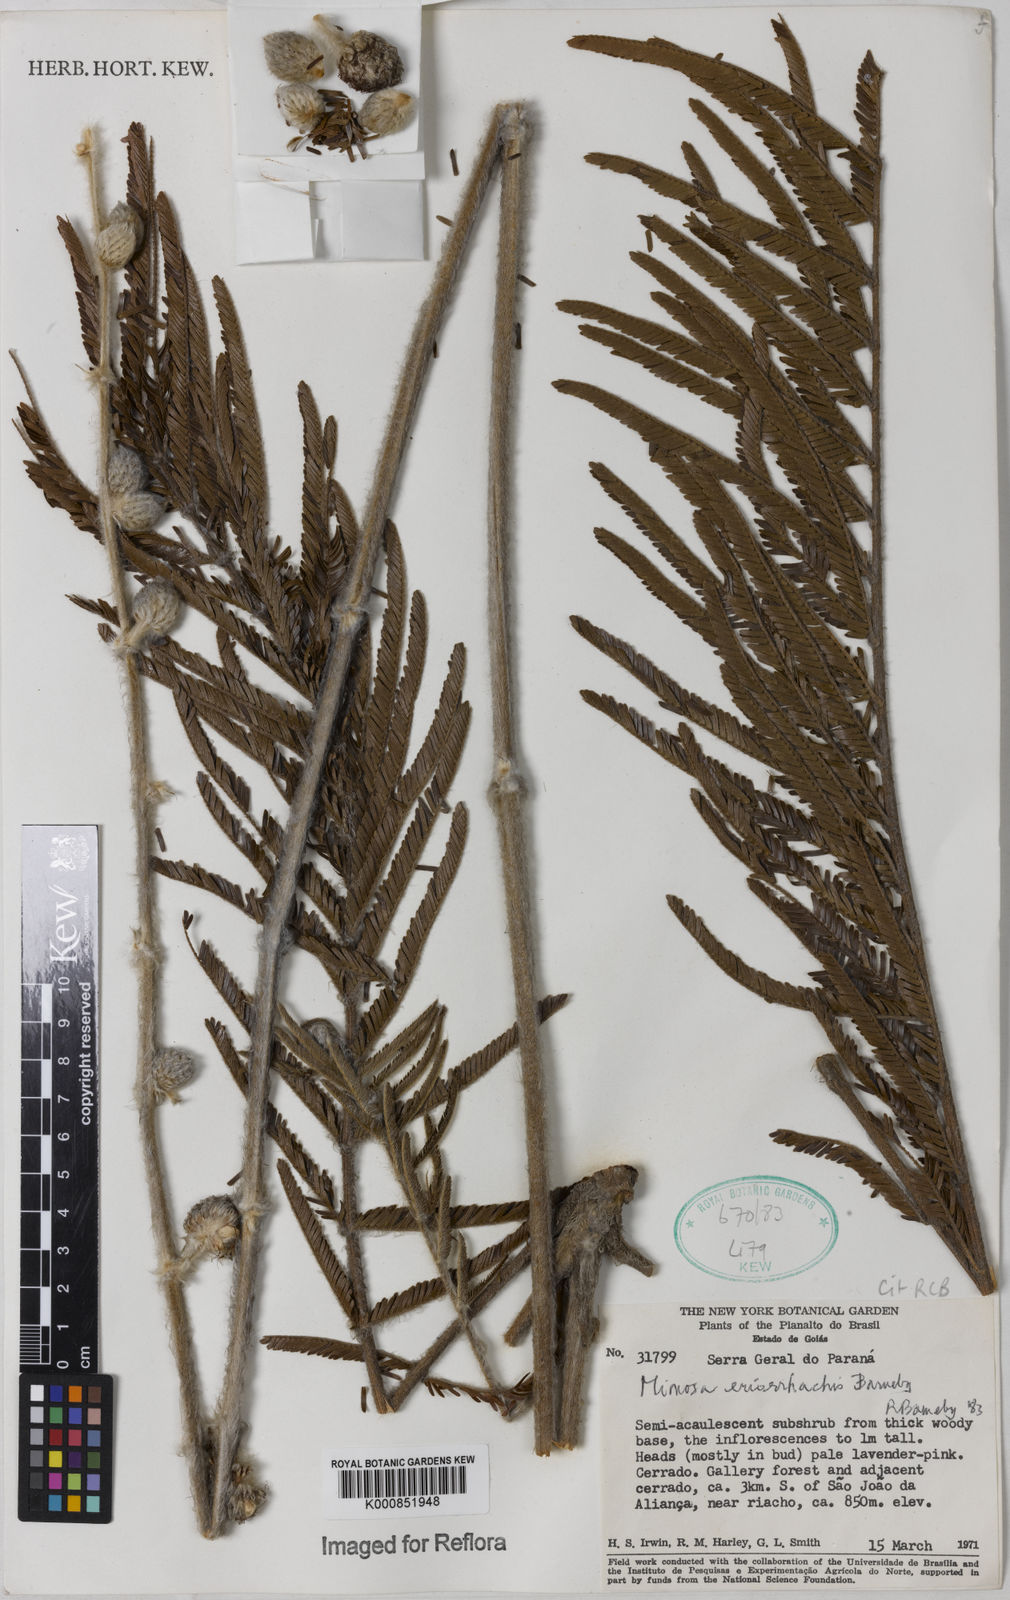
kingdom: Plantae
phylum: Tracheophyta
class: Magnoliopsida
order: Fabales
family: Fabaceae
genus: Mimosa
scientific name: Mimosa eriorrhachis
